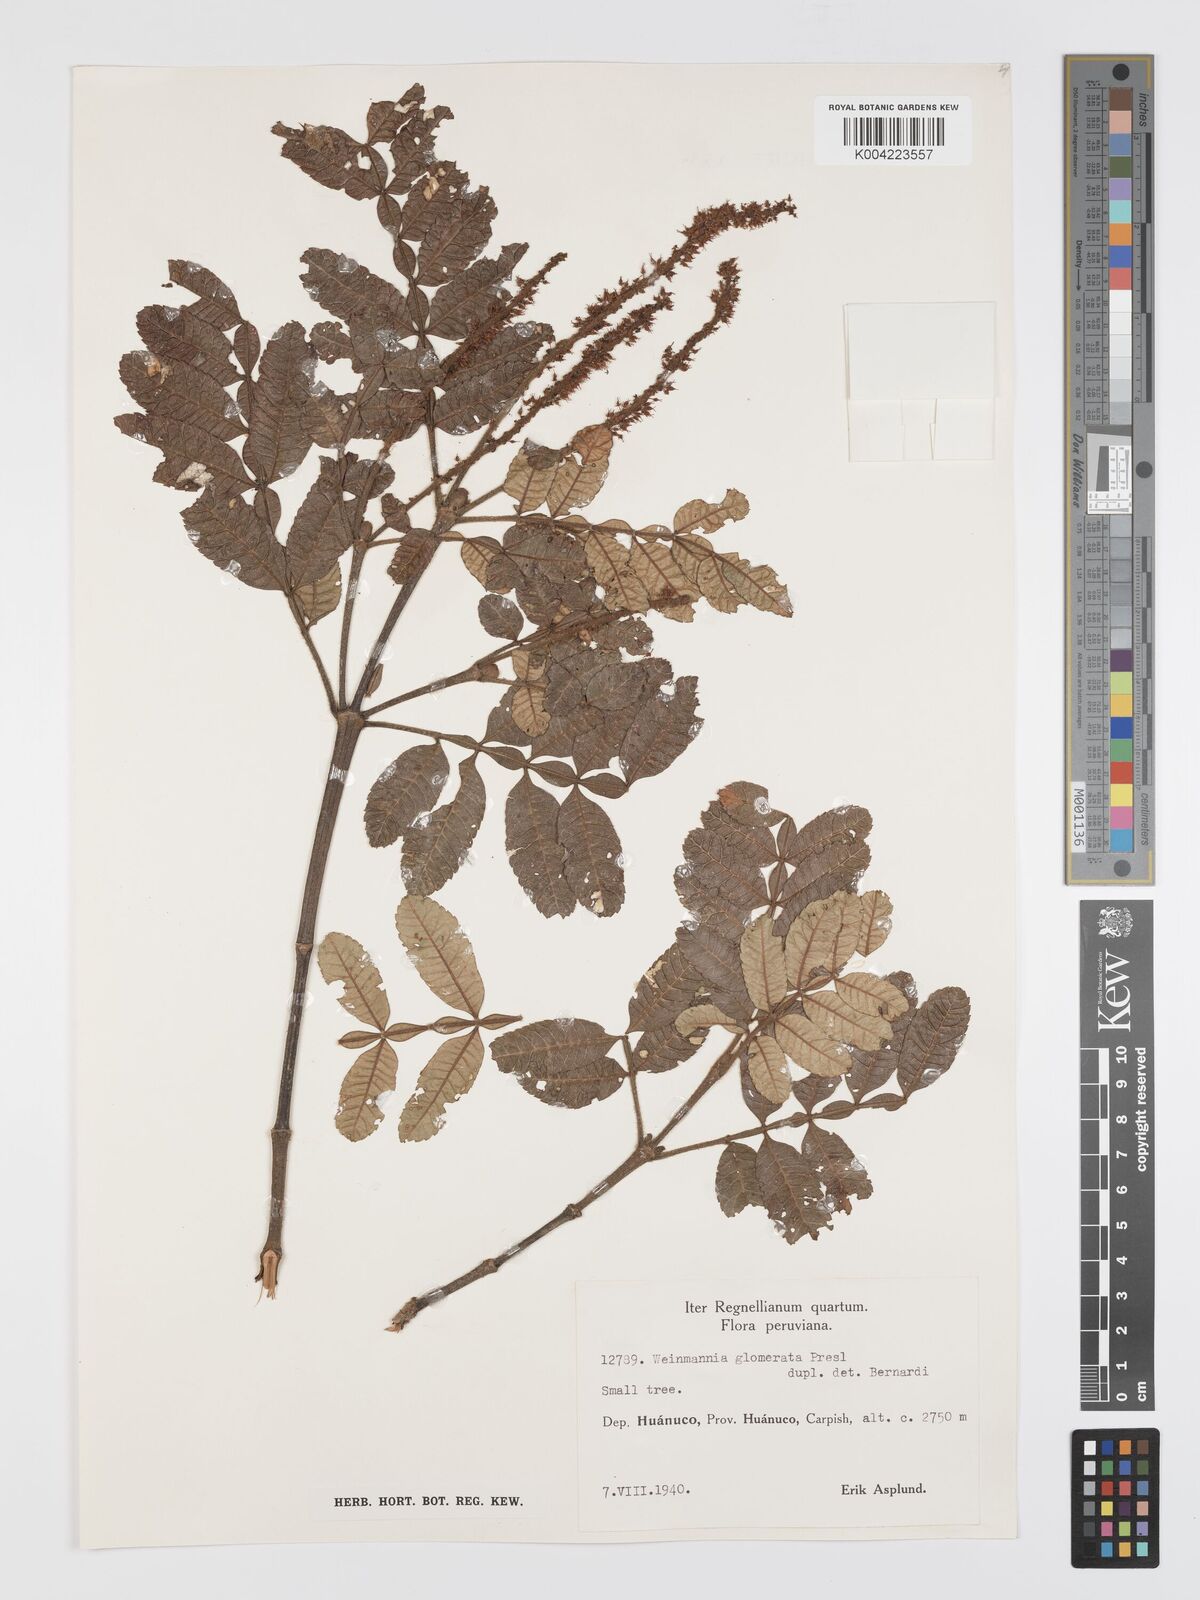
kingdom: Plantae
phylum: Tracheophyta
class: Magnoliopsida
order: Oxalidales
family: Cunoniaceae
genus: Weinmannia
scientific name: Weinmannia glomerata
